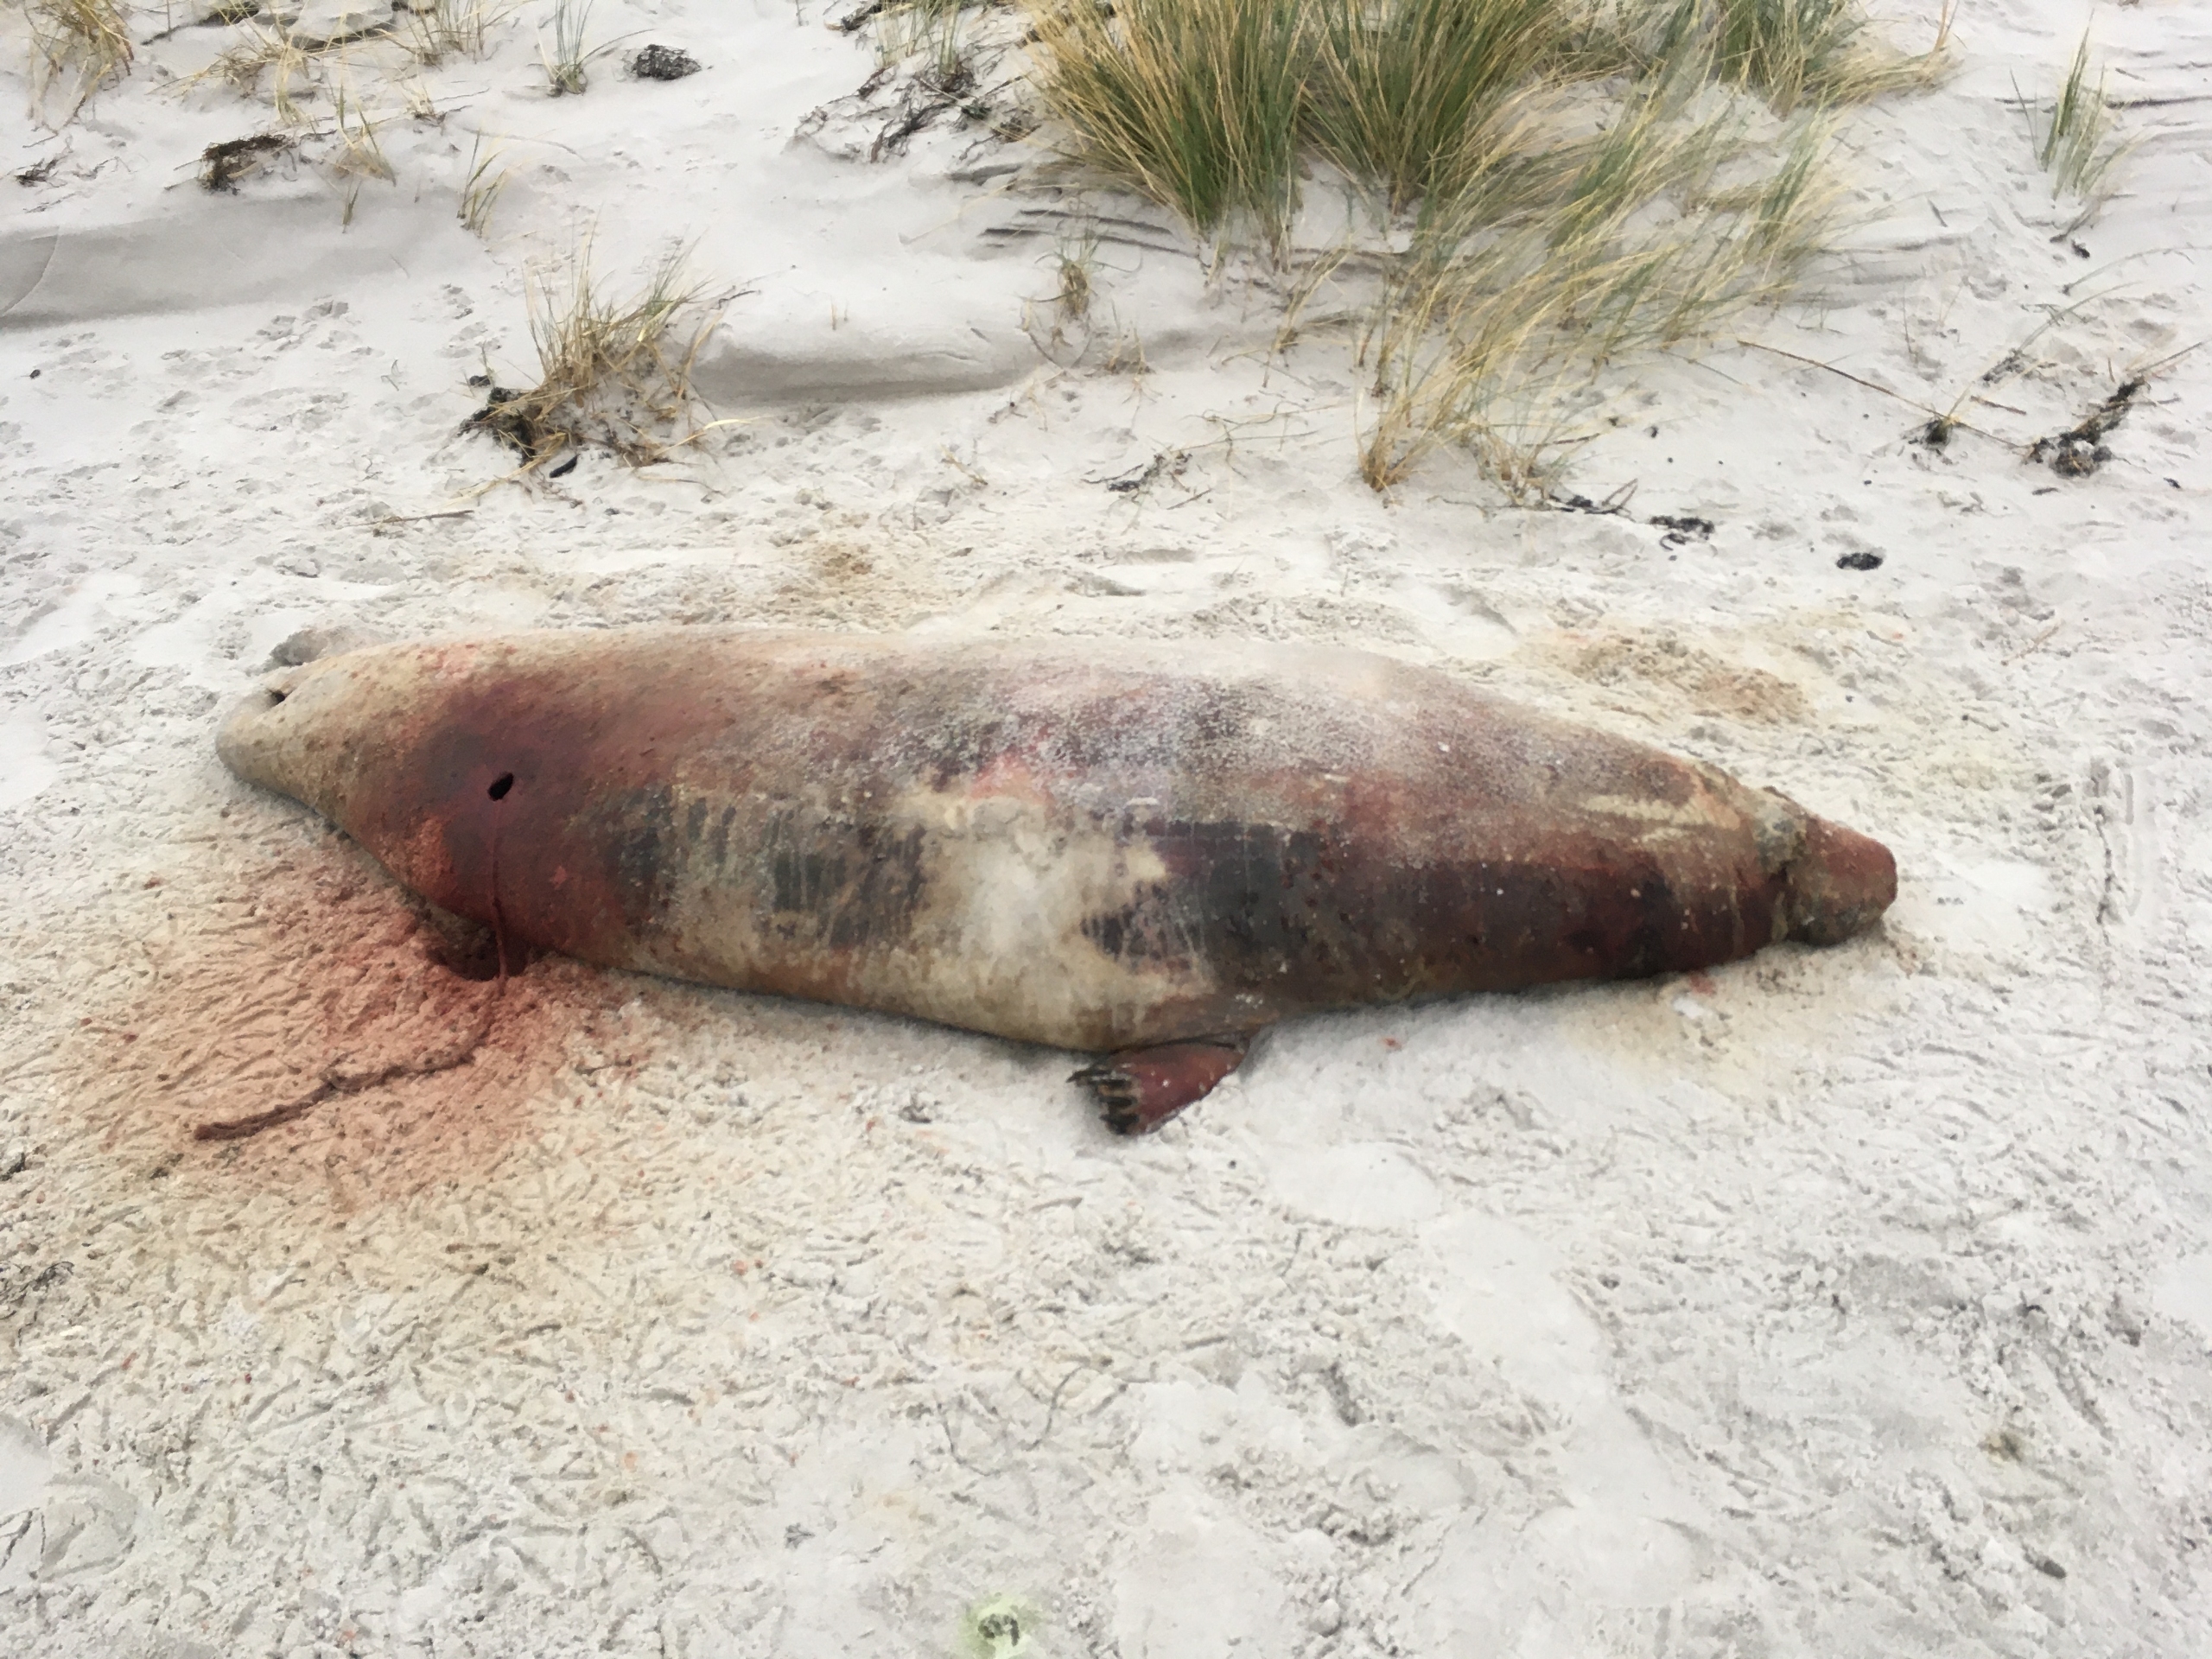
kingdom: Animalia
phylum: Chordata
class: Mammalia
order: Carnivora
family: Phocidae
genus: Halichoerus
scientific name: Halichoerus grypus
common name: Gråsæl
